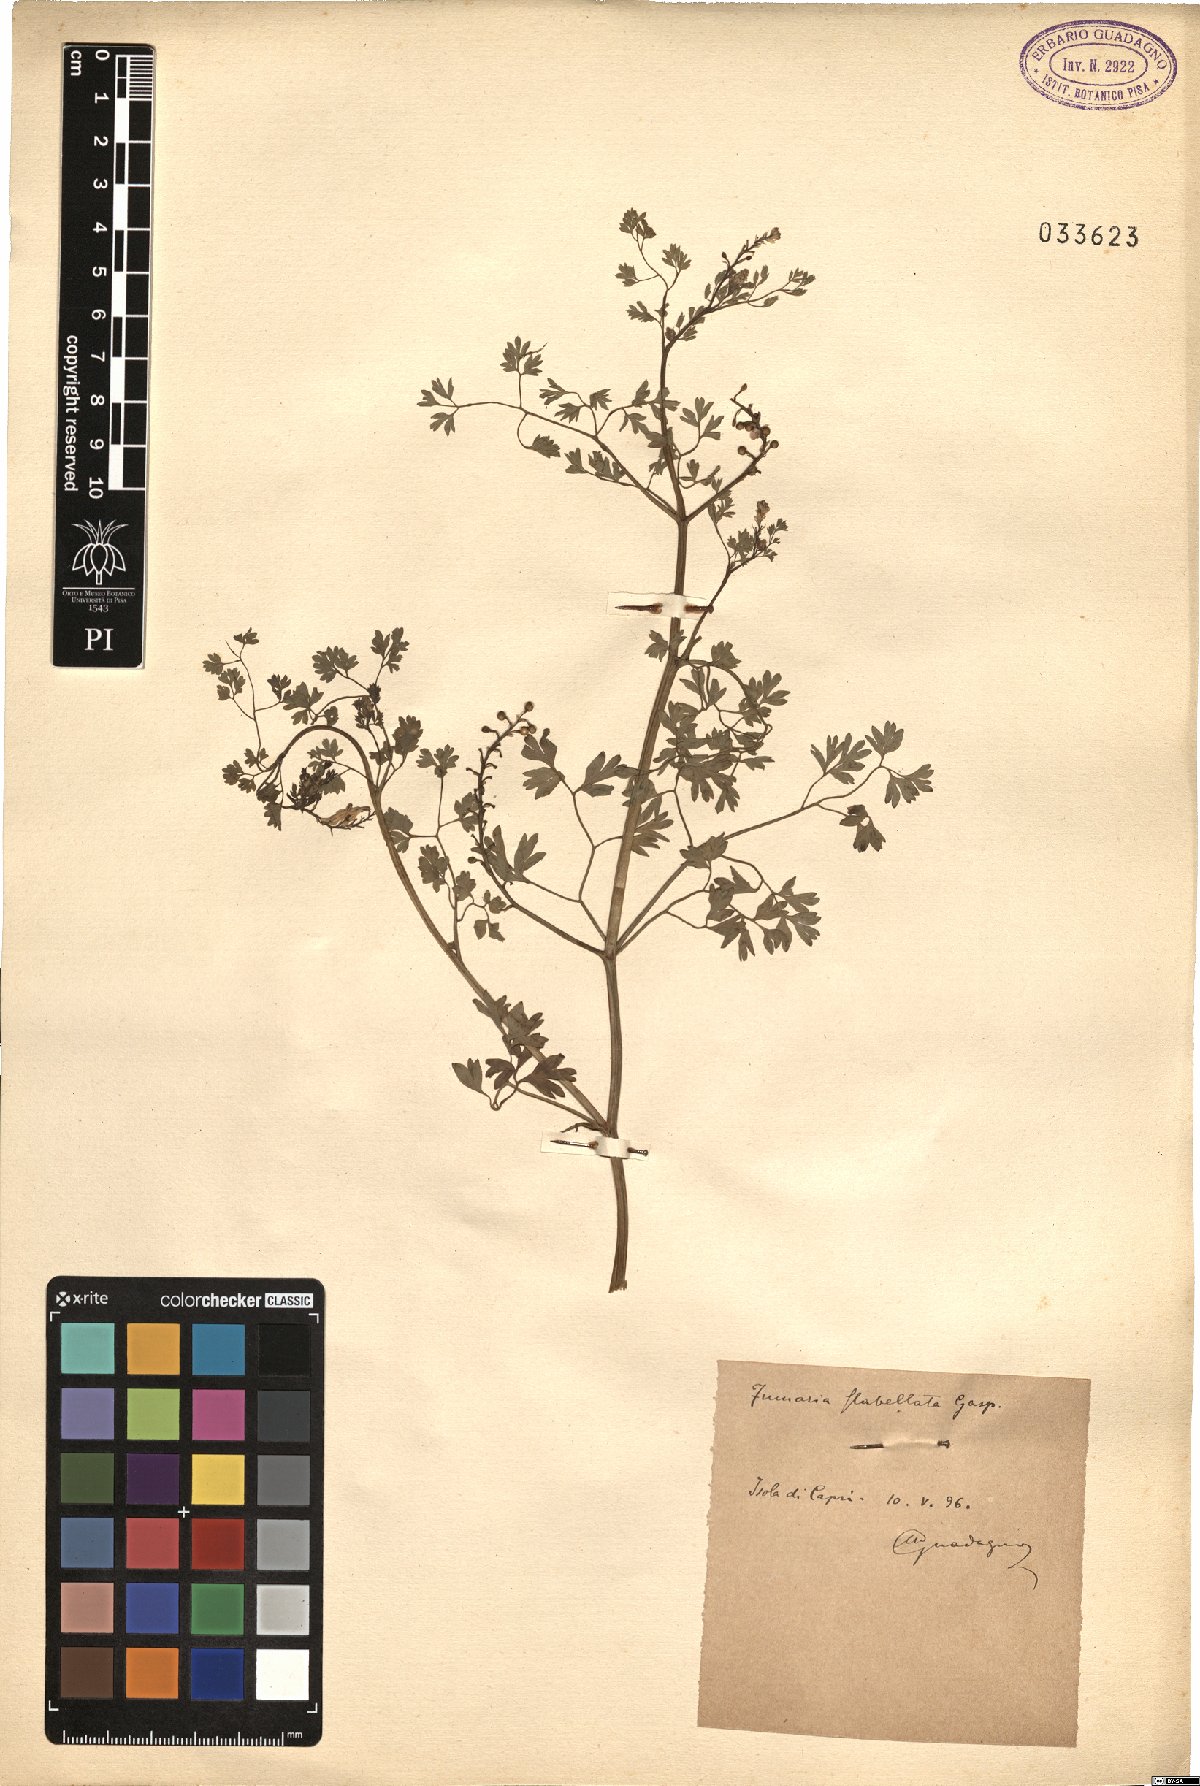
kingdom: Plantae
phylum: Tracheophyta
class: Magnoliopsida
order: Ranunculales
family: Papaveraceae
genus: Fumaria
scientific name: Fumaria flabellata
